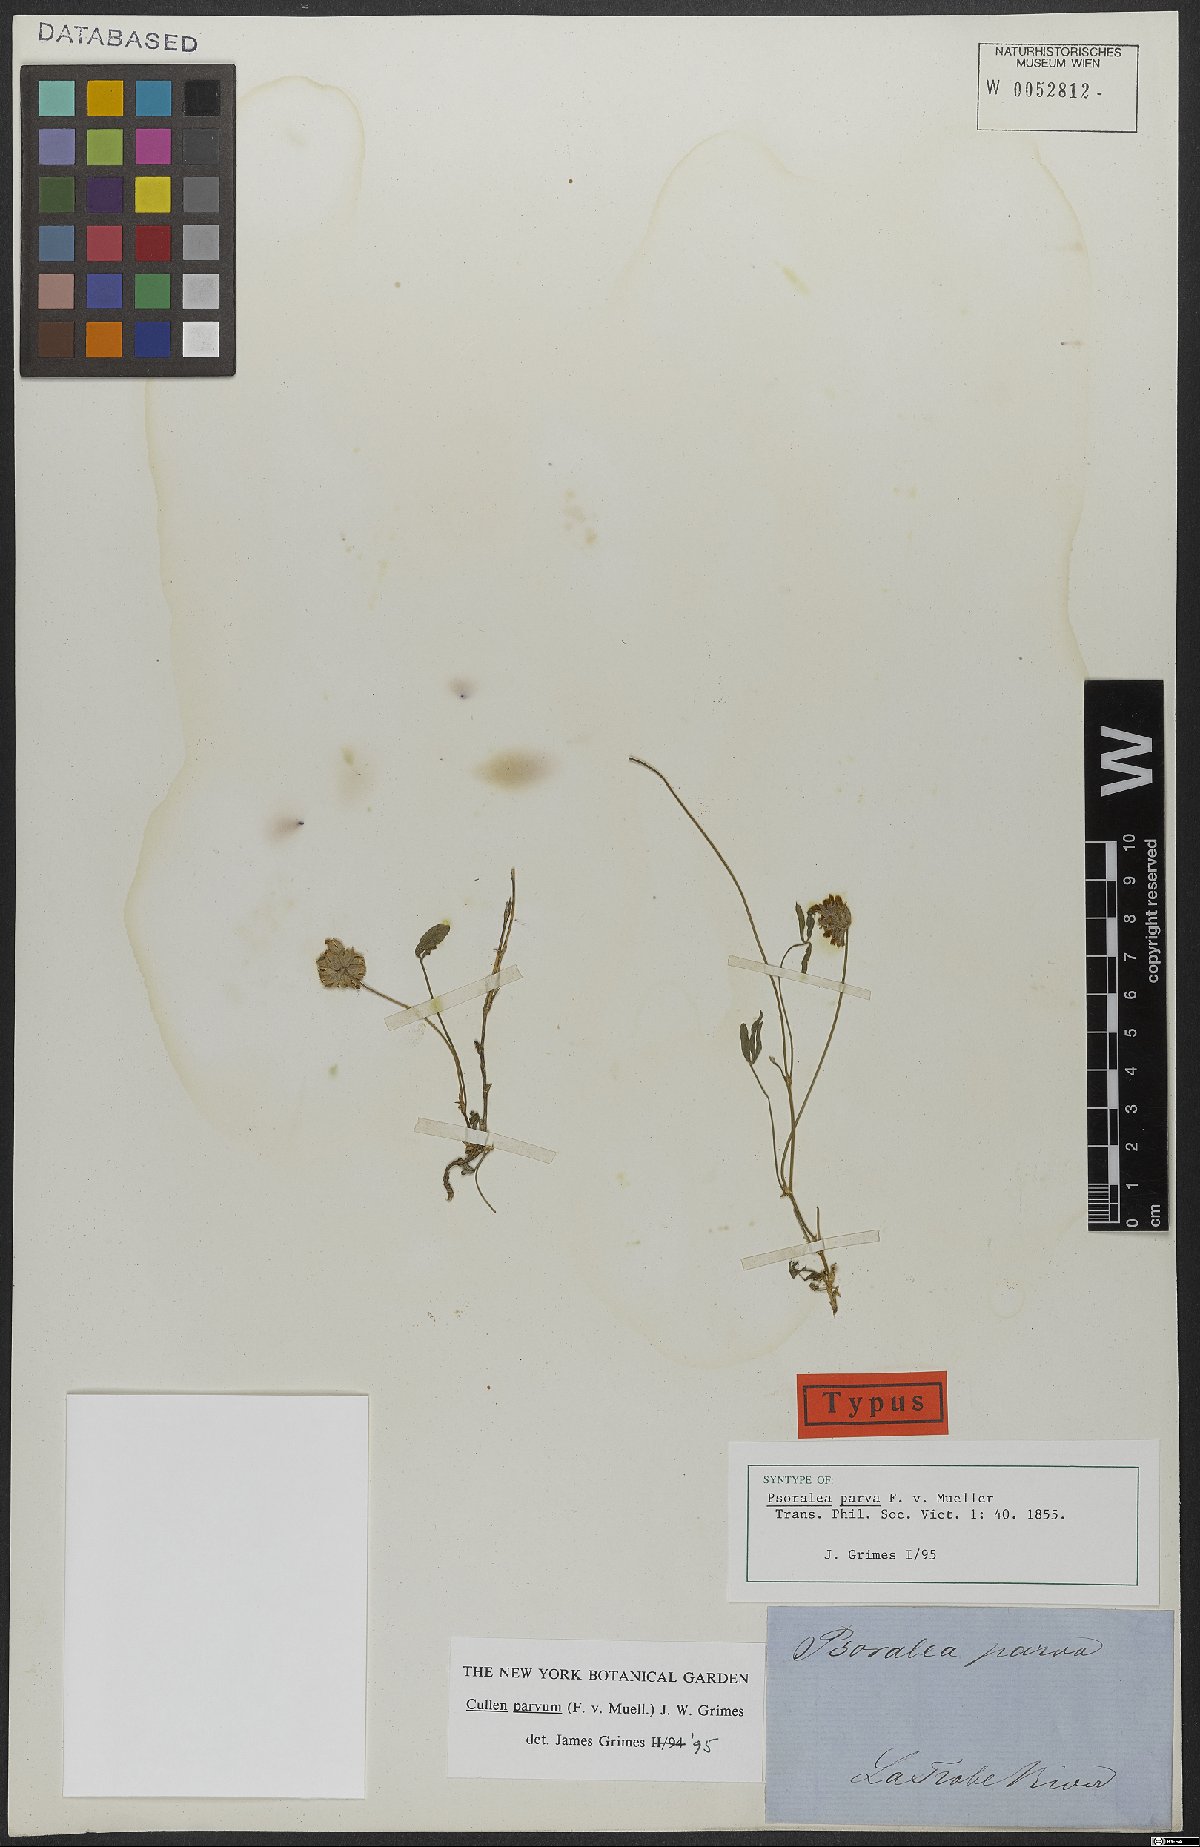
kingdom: Plantae
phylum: Tracheophyta
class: Magnoliopsida
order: Fabales
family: Fabaceae
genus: Cullen
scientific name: Cullen parvum
